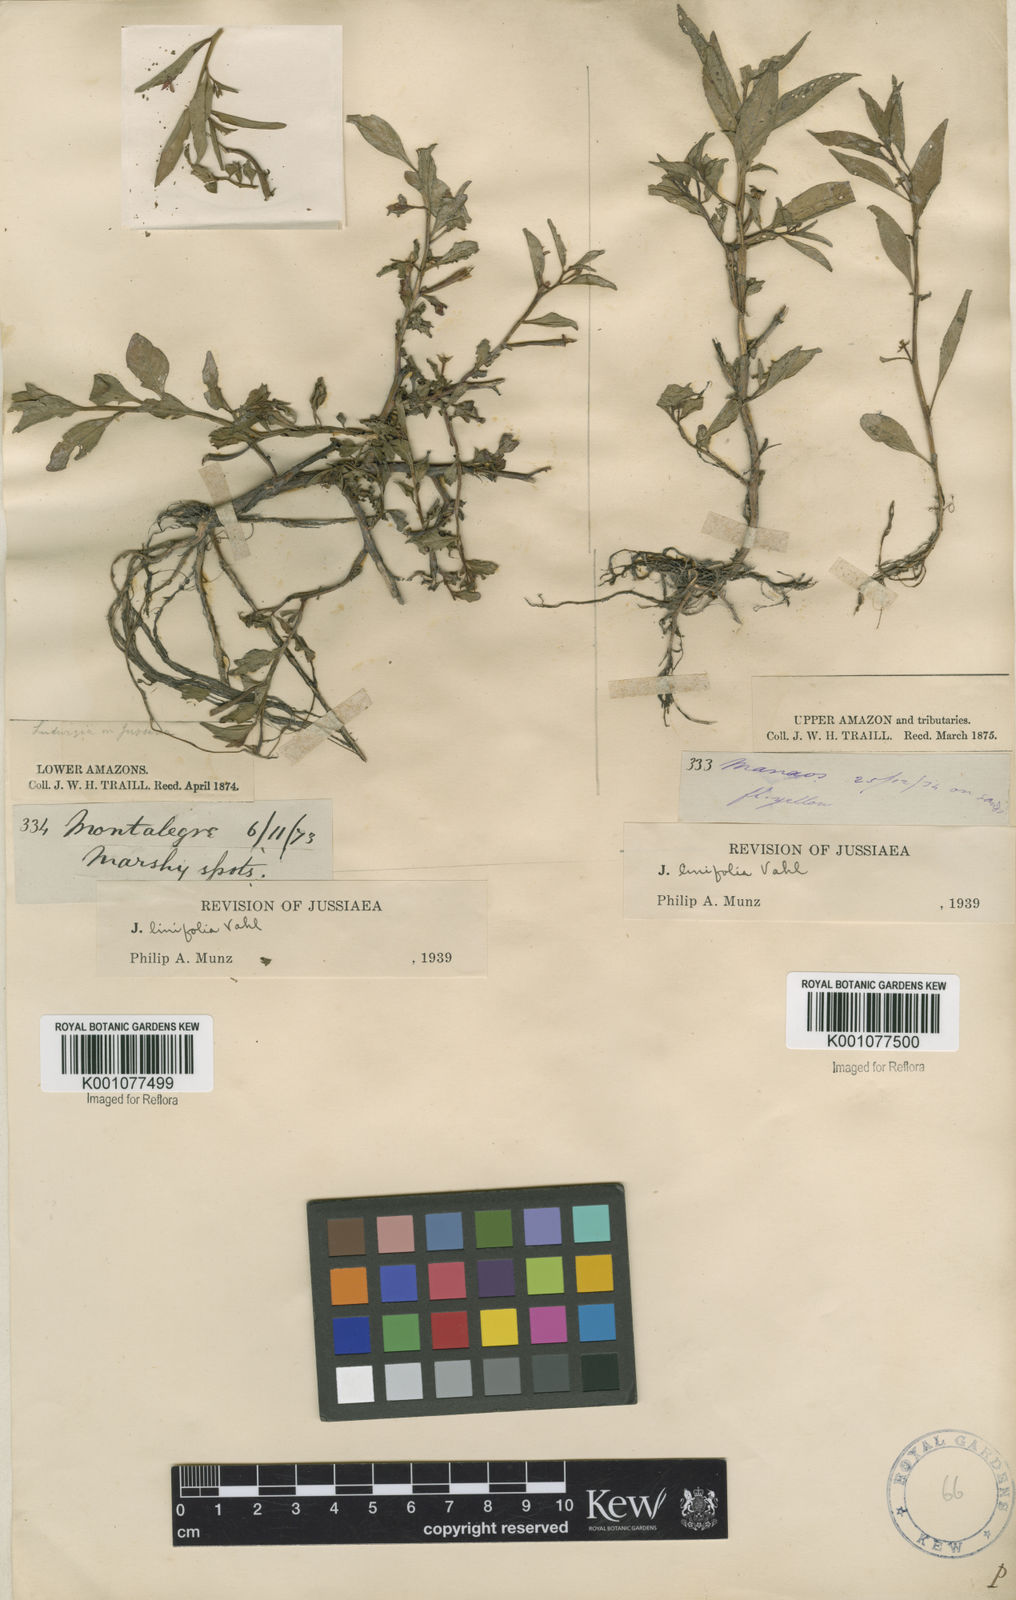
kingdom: Plantae
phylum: Tracheophyta
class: Magnoliopsida
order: Myrtales
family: Onagraceae
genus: Ludwigia
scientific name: Ludwigia hyssopifolia
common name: Linear leaf water primrose
